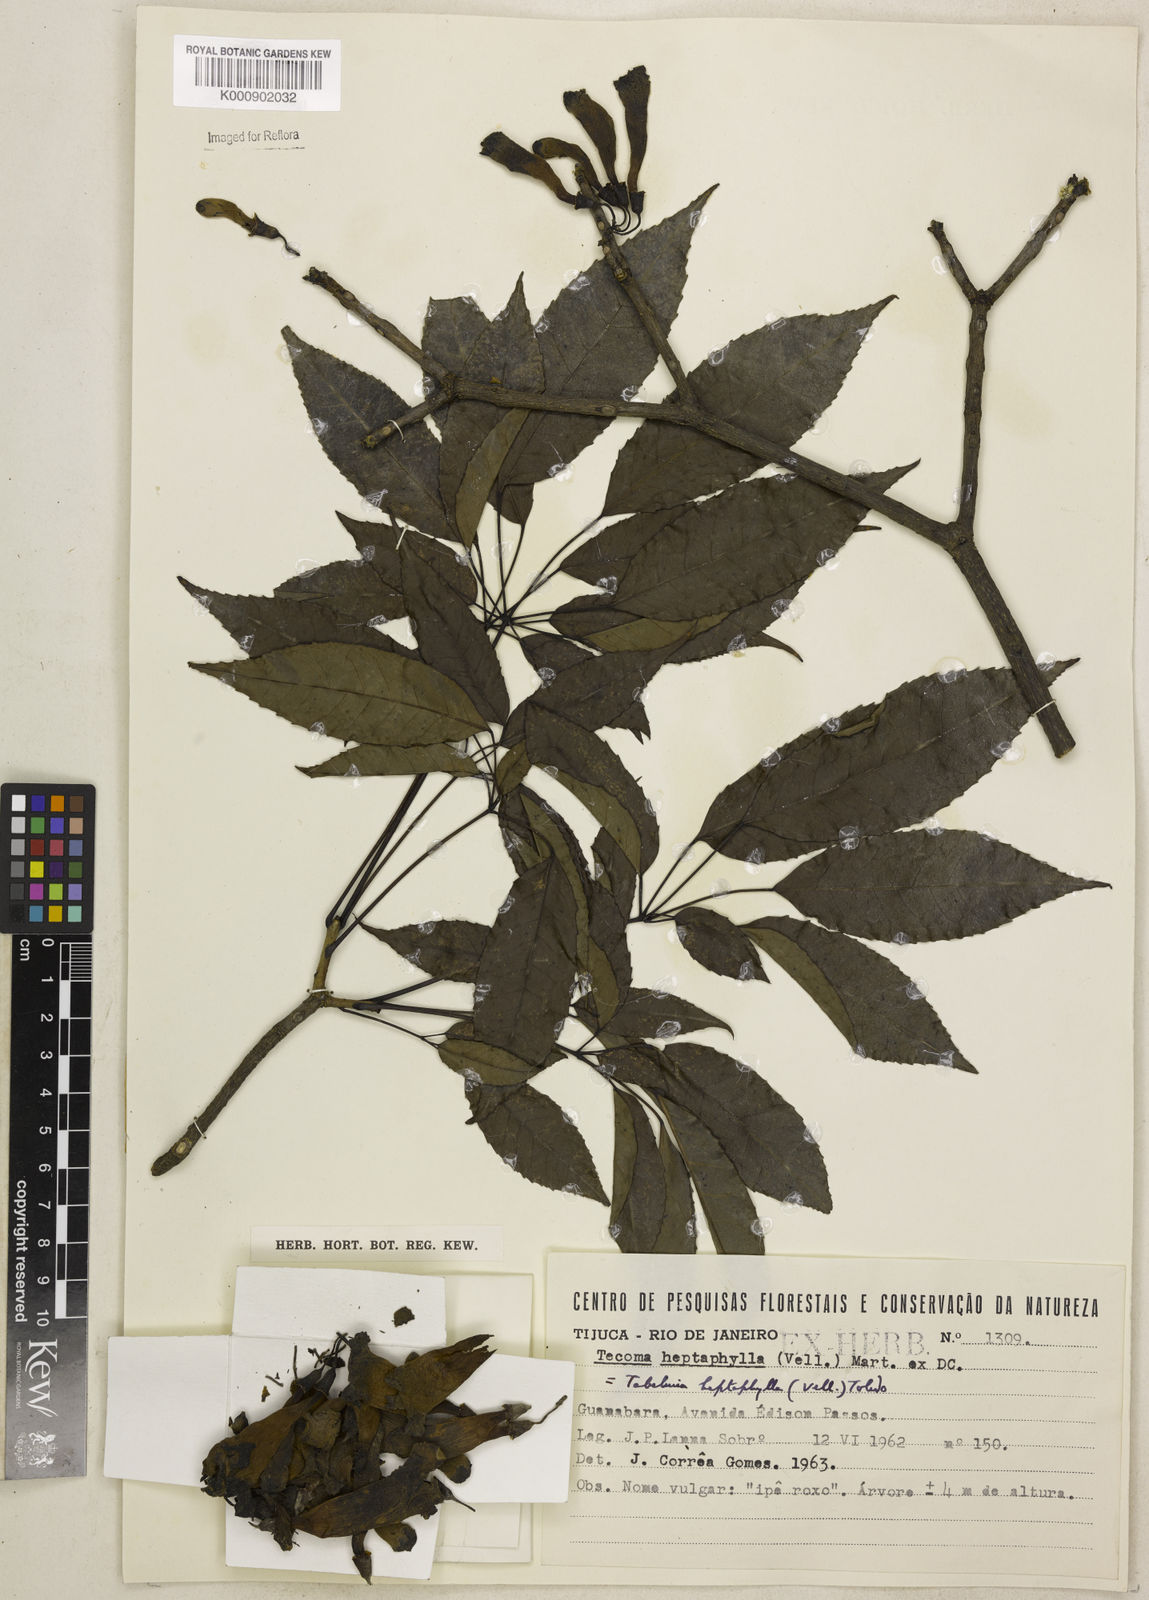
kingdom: Plantae
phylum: Tracheophyta
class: Magnoliopsida
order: Lamiales
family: Bignoniaceae
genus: Handroanthus
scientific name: Handroanthus heptaphyllus
